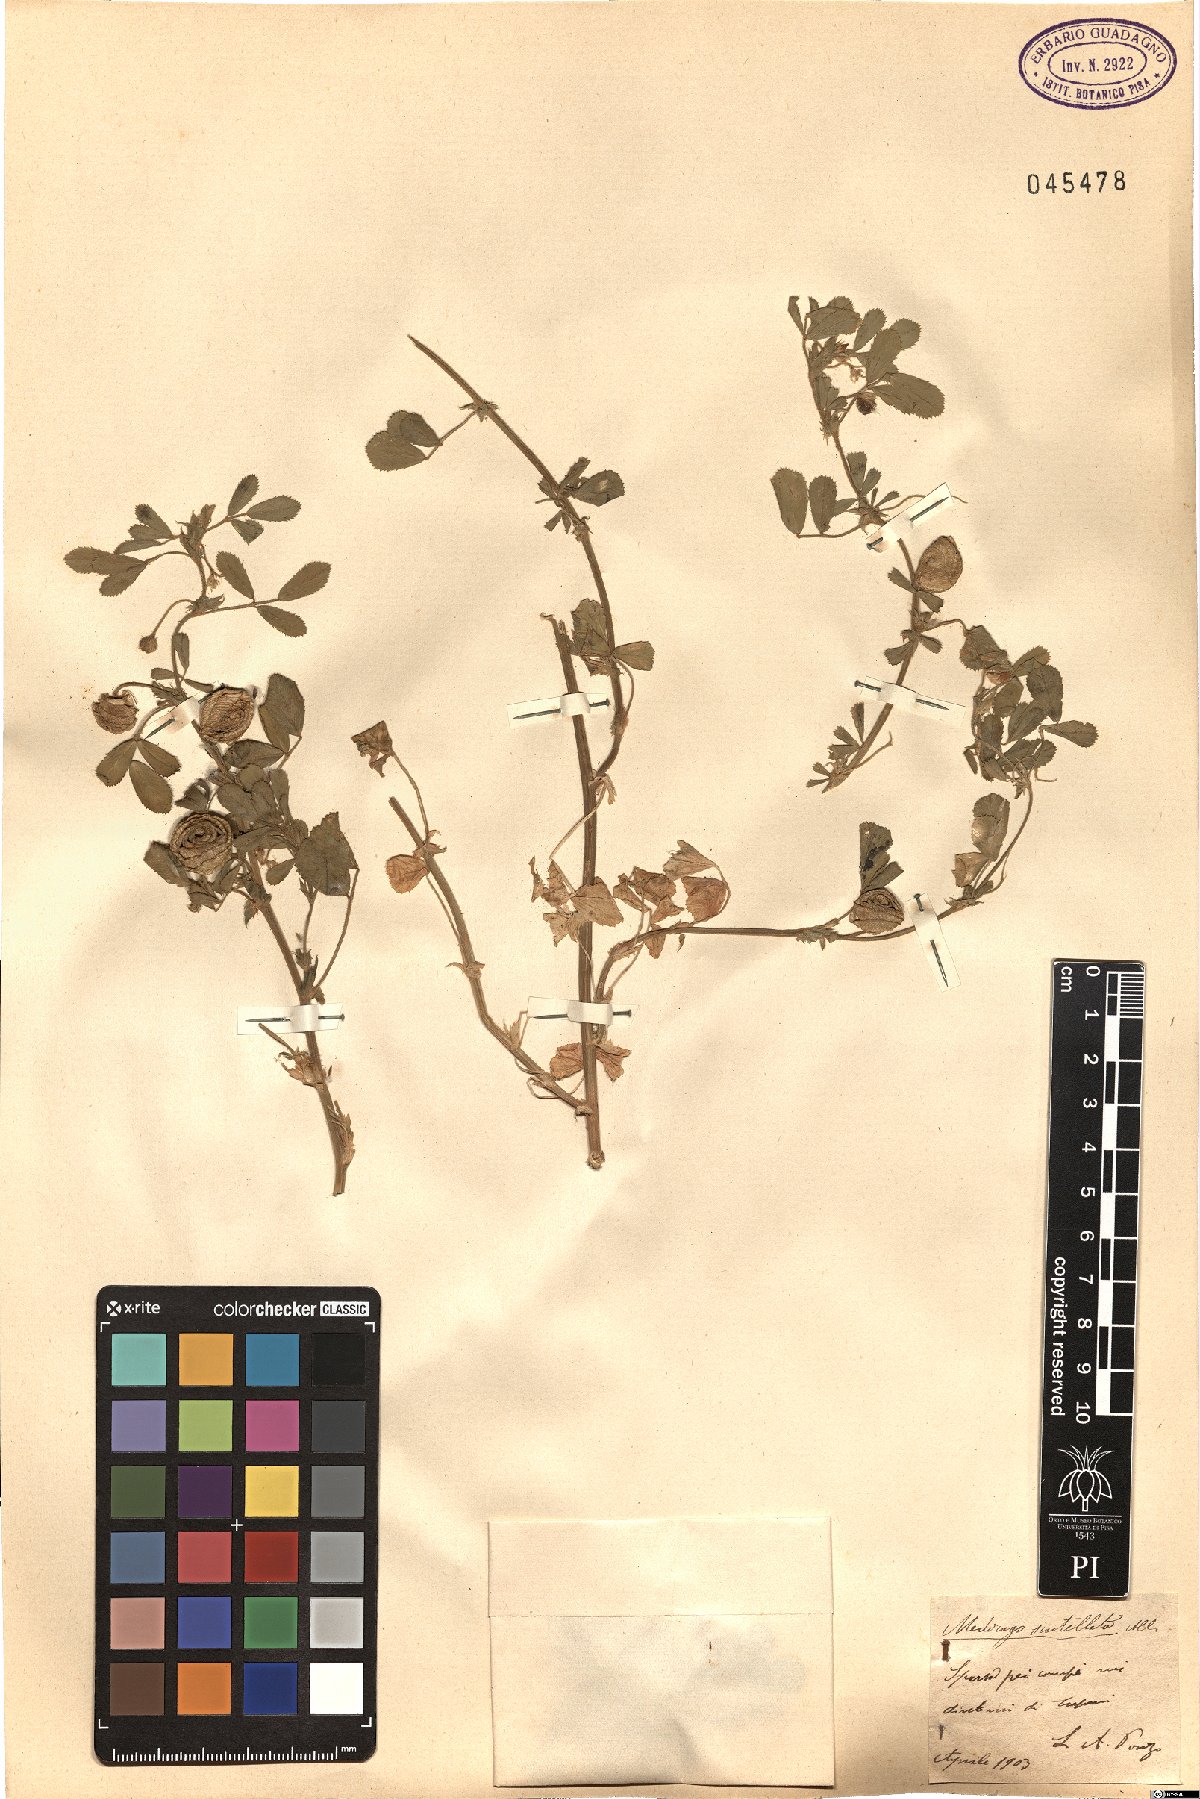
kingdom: Plantae
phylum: Tracheophyta
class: Magnoliopsida
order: Fabales
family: Fabaceae
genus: Medicago
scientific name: Medicago scutellata
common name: Snail medick
